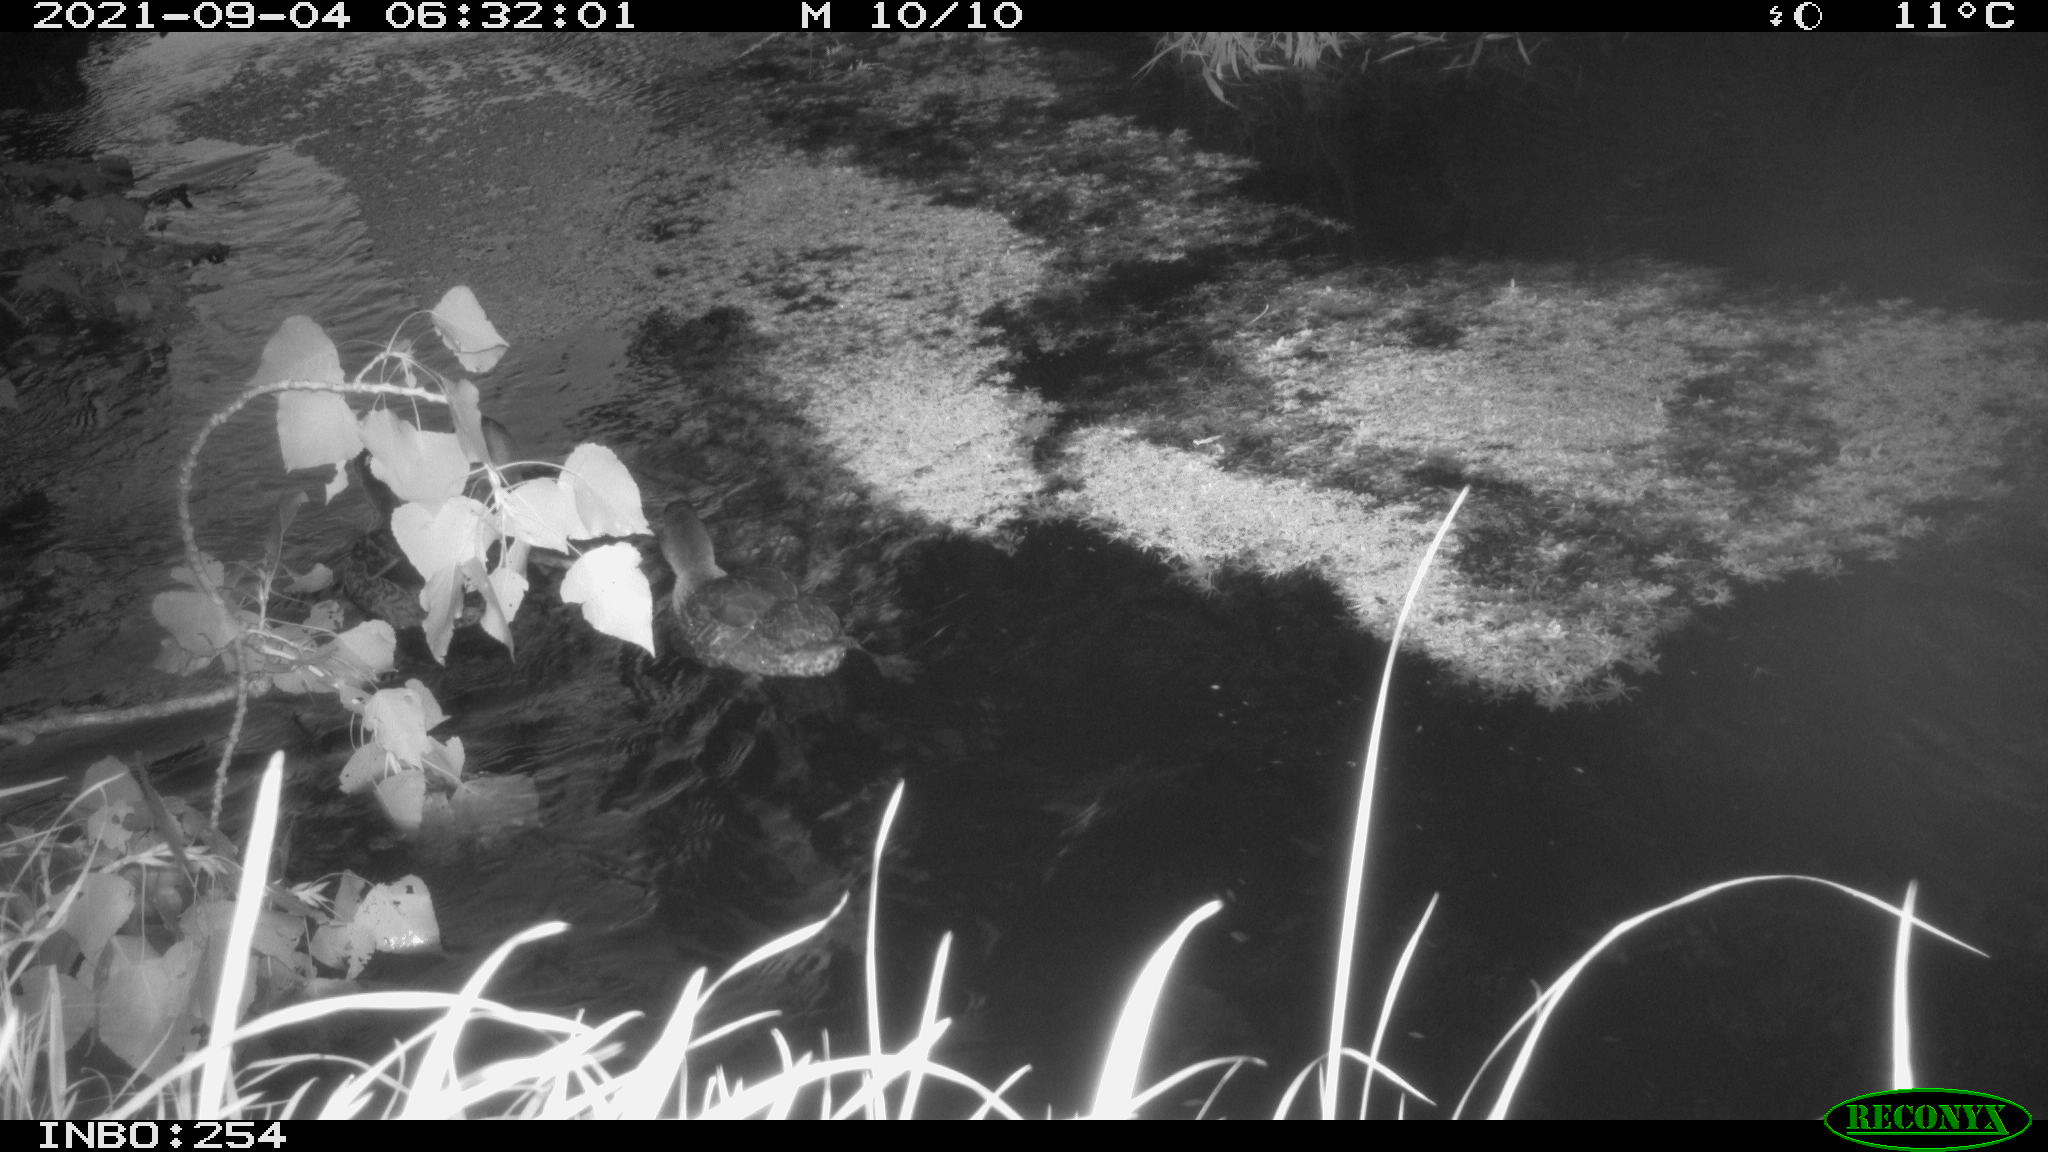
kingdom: Animalia
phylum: Chordata
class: Aves
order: Anseriformes
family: Anatidae
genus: Anas
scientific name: Anas platyrhynchos
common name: Mallard
